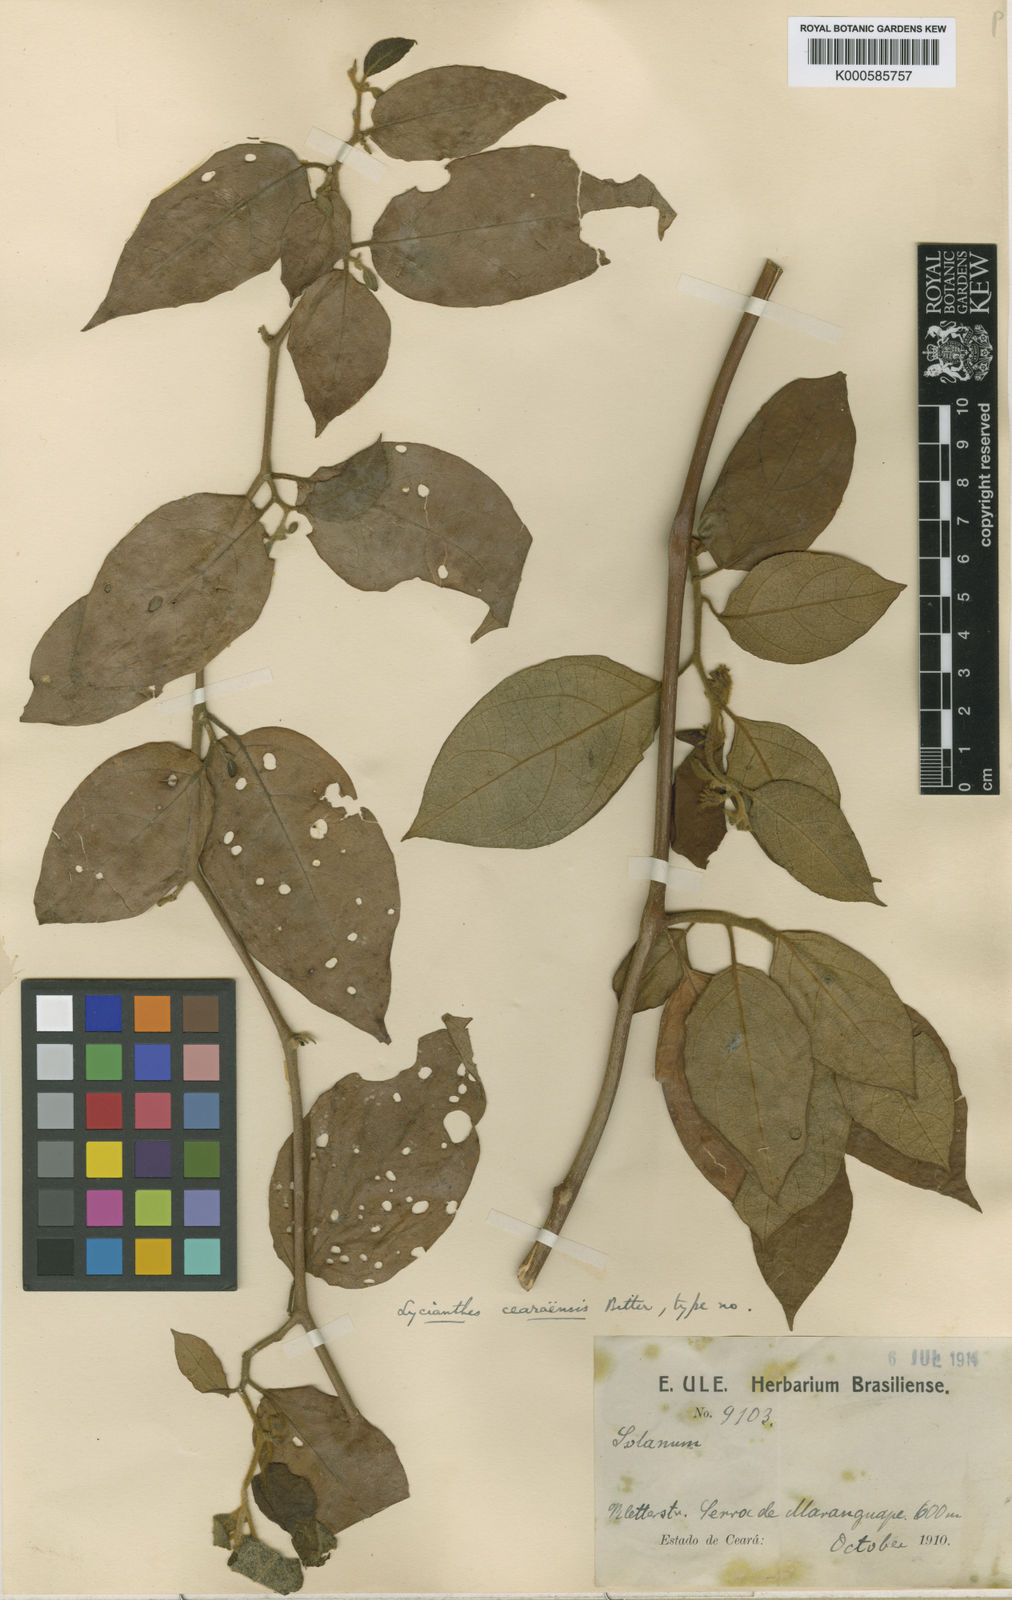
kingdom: Plantae
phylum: Tracheophyta
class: Magnoliopsida
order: Solanales
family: Solanaceae
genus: Lycianthes
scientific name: Lycianthes
